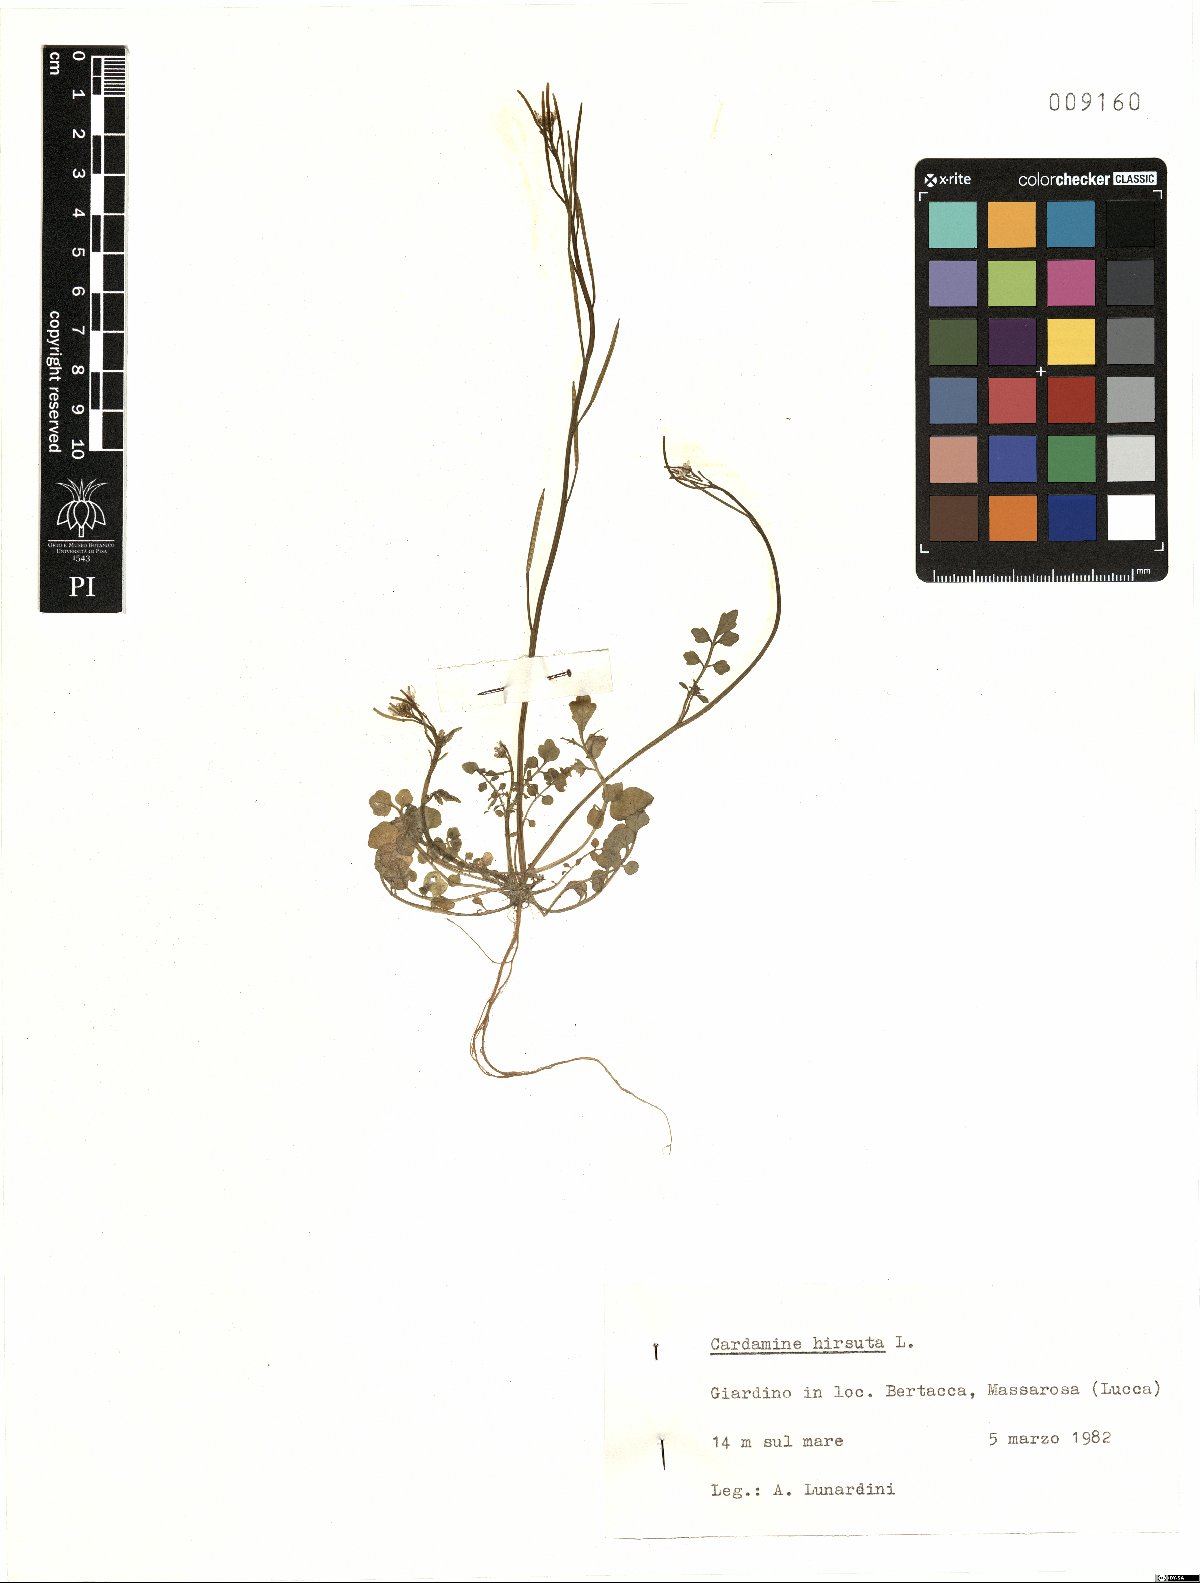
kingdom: Plantae
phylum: Tracheophyta
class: Magnoliopsida
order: Brassicales
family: Brassicaceae
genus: Cardamine
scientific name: Cardamine hirsuta
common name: Hairy bittercress
